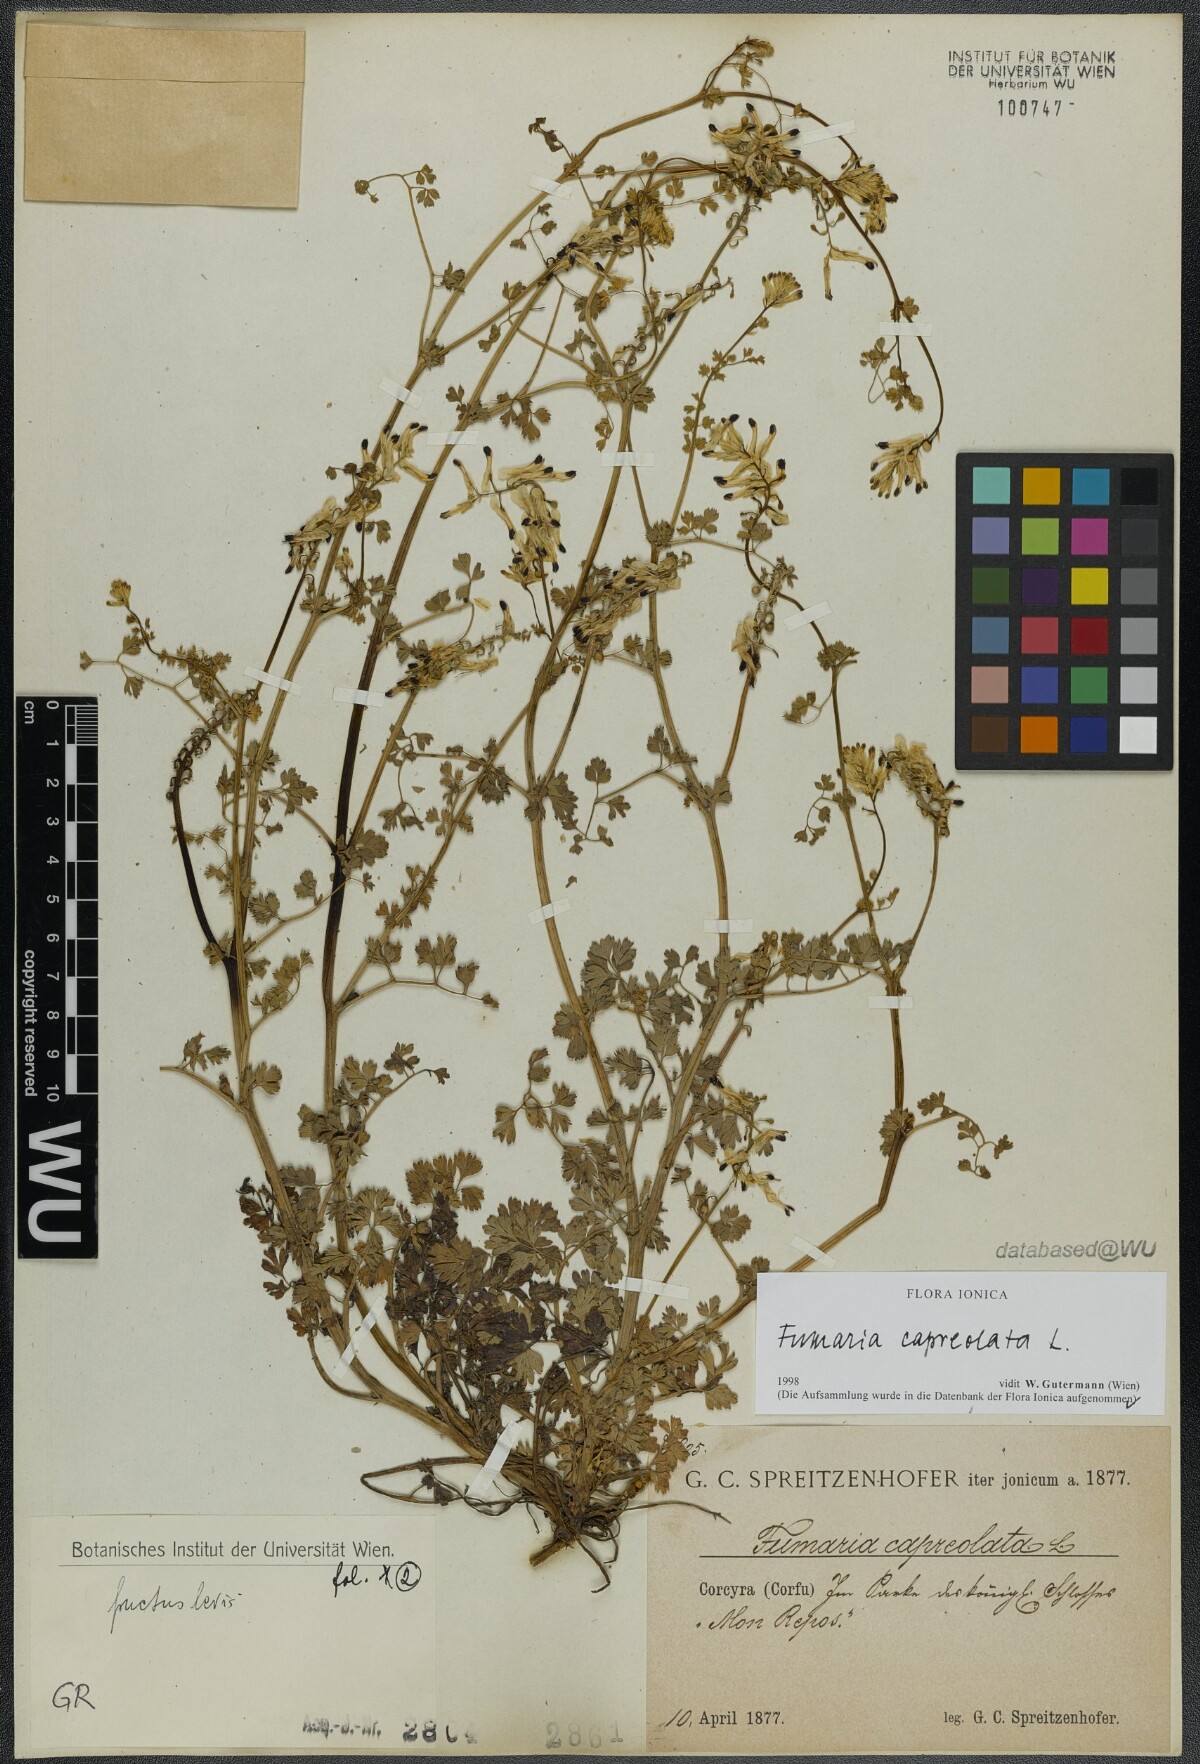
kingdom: Plantae
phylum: Tracheophyta
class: Magnoliopsida
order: Ranunculales
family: Papaveraceae
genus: Fumaria
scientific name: Fumaria capreolata
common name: White ramping-fumitory
